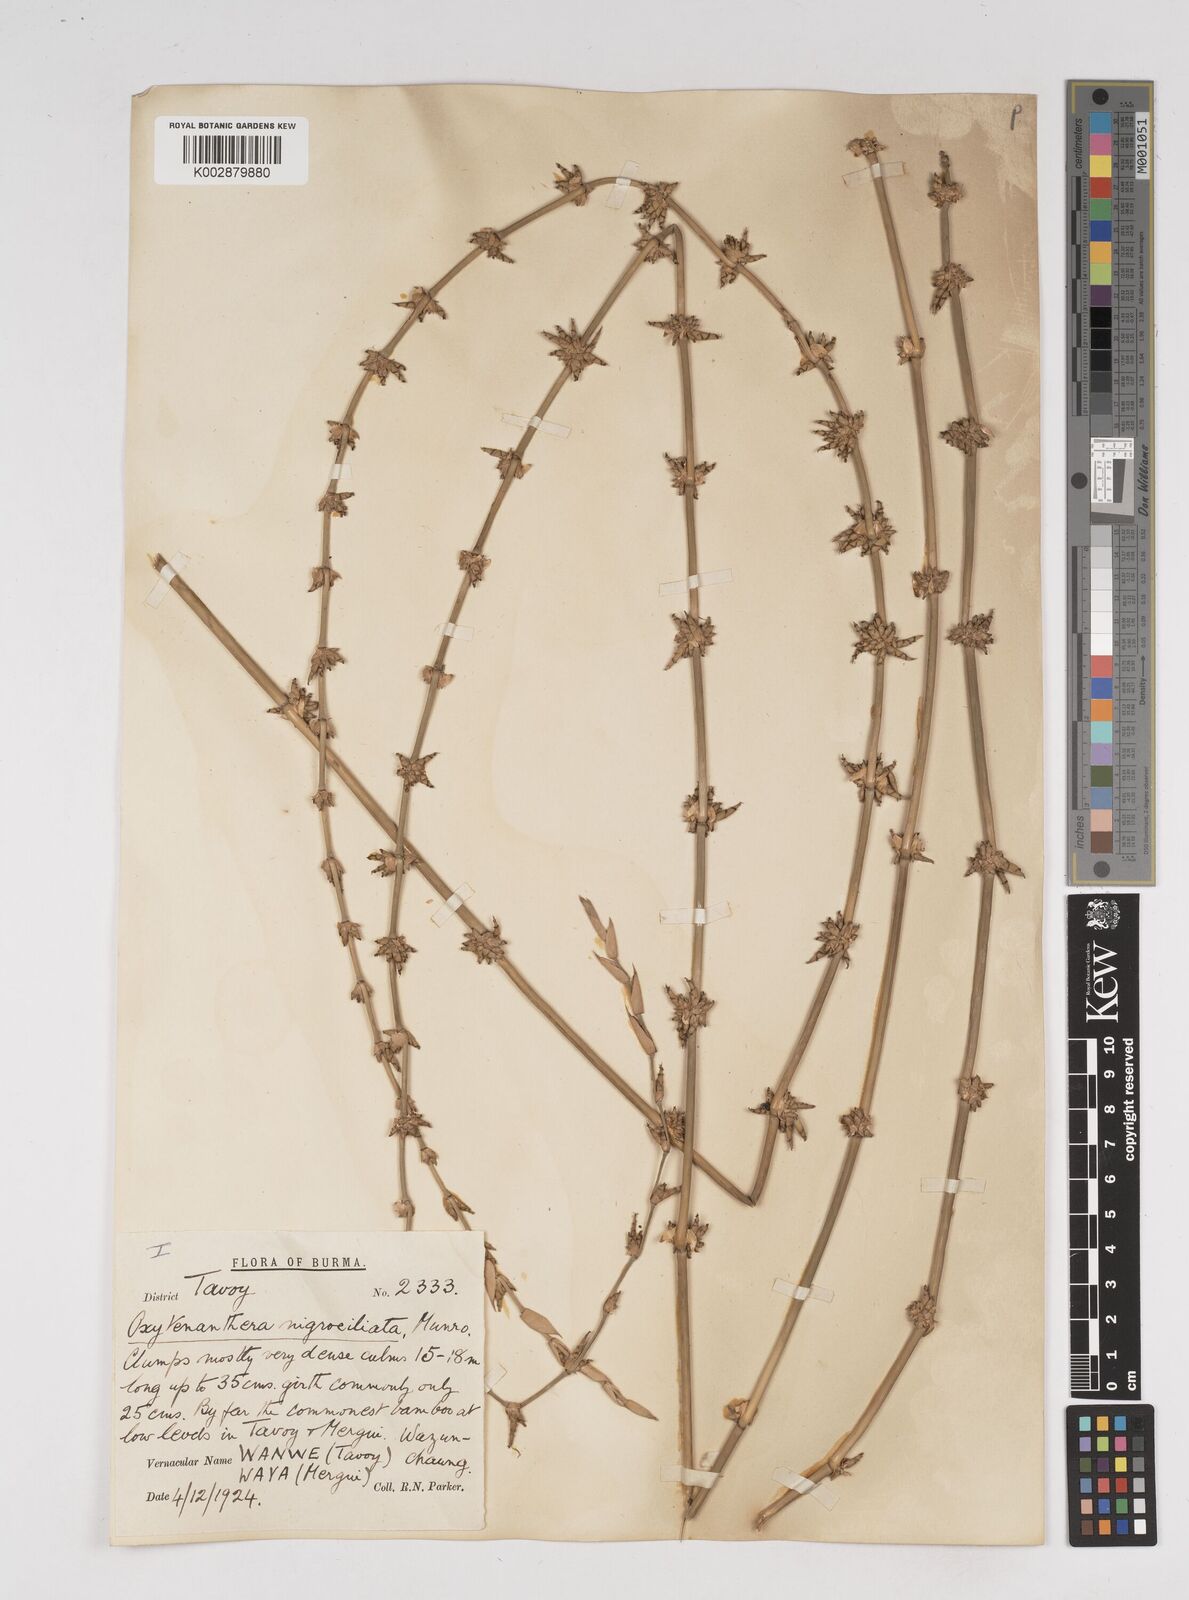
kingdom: Plantae
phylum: Tracheophyta
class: Liliopsida
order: Poales
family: Poaceae
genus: Gigantochloa
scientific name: Gigantochloa
